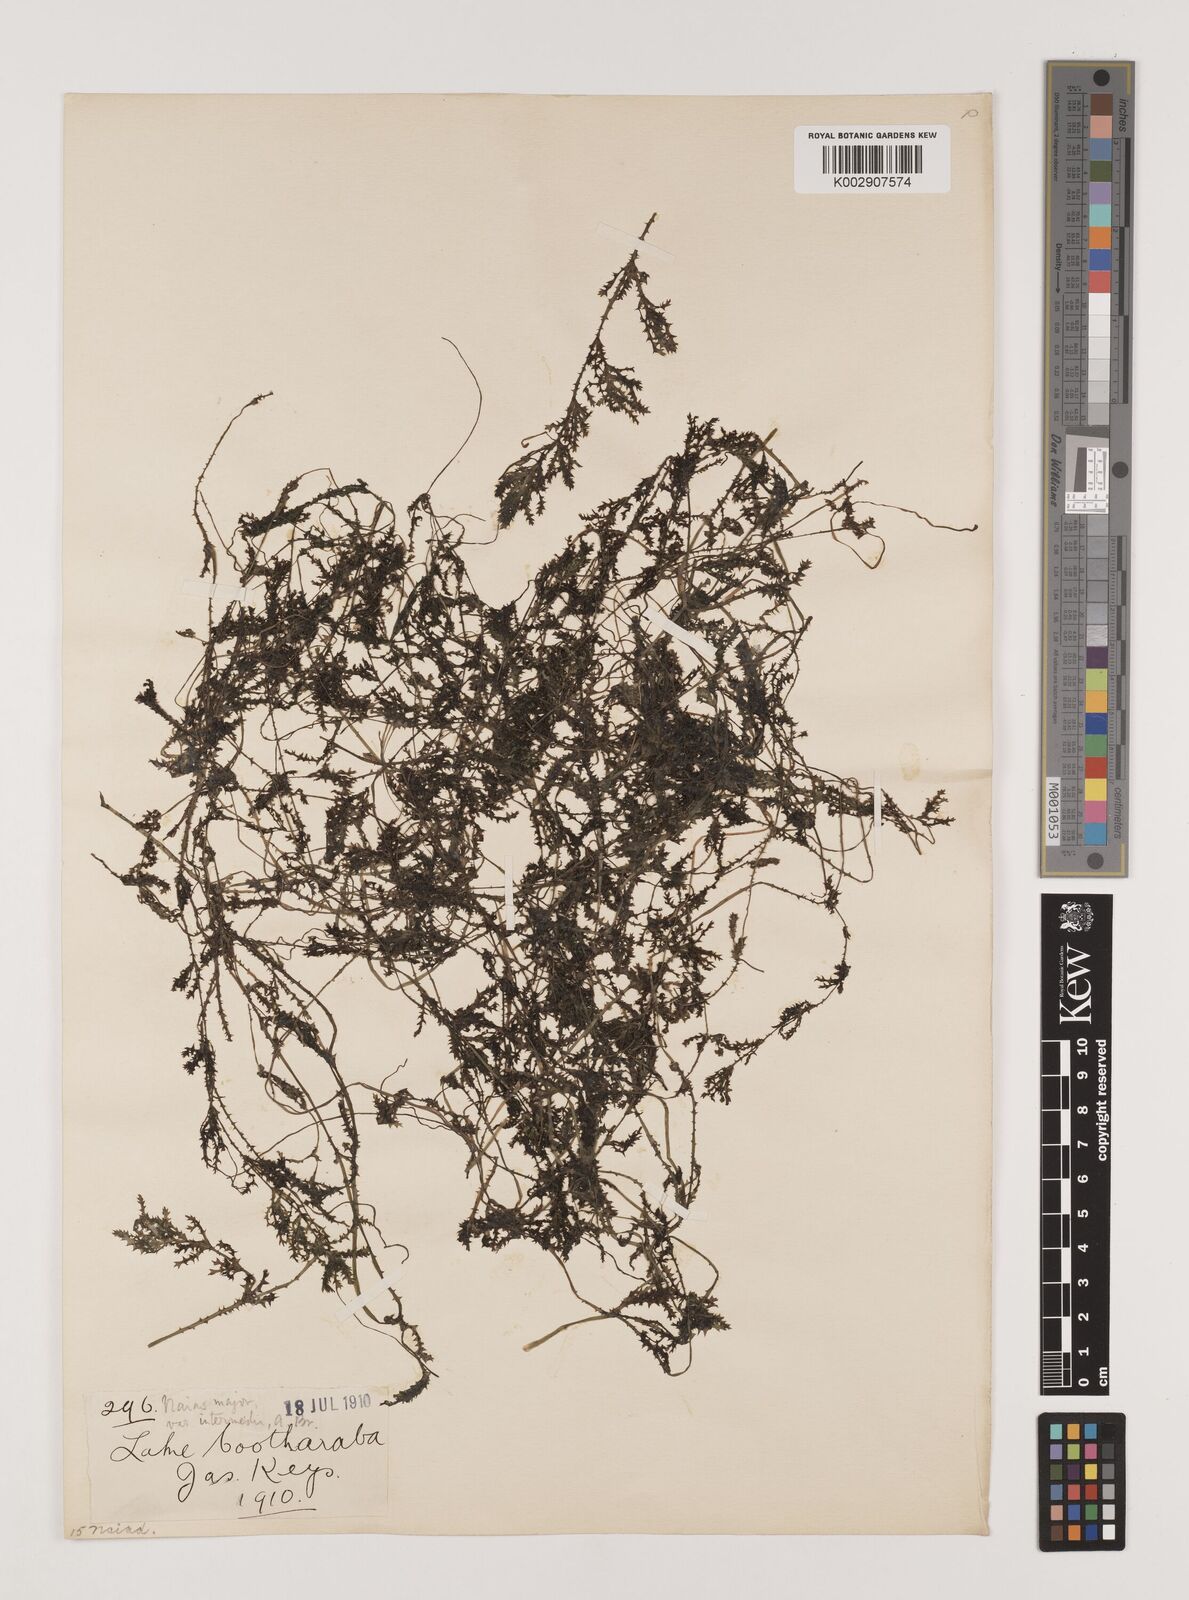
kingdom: Plantae
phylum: Tracheophyta
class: Liliopsida
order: Alismatales
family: Hydrocharitaceae
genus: Najas
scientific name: Najas marina
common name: Holly-leaved naiad
